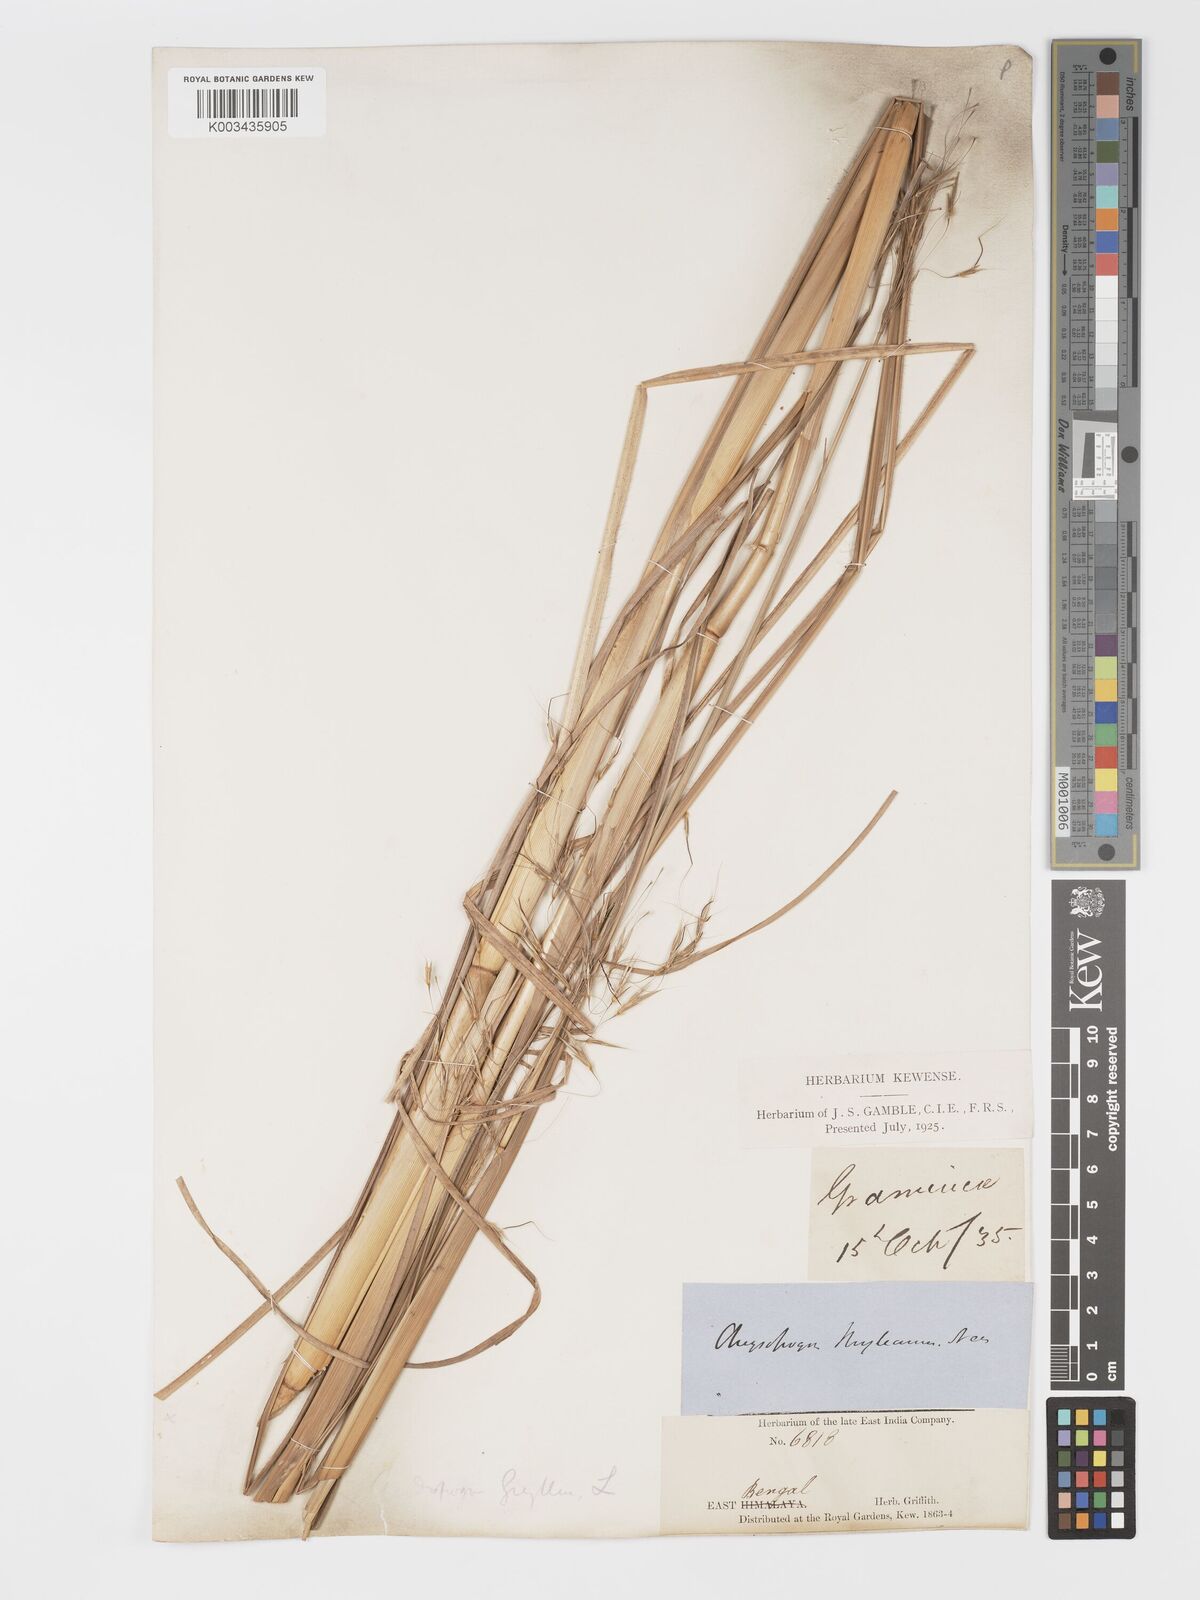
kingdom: Plantae
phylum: Tracheophyta
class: Liliopsida
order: Poales
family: Poaceae
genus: Chrysopogon
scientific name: Chrysopogon gryllus
